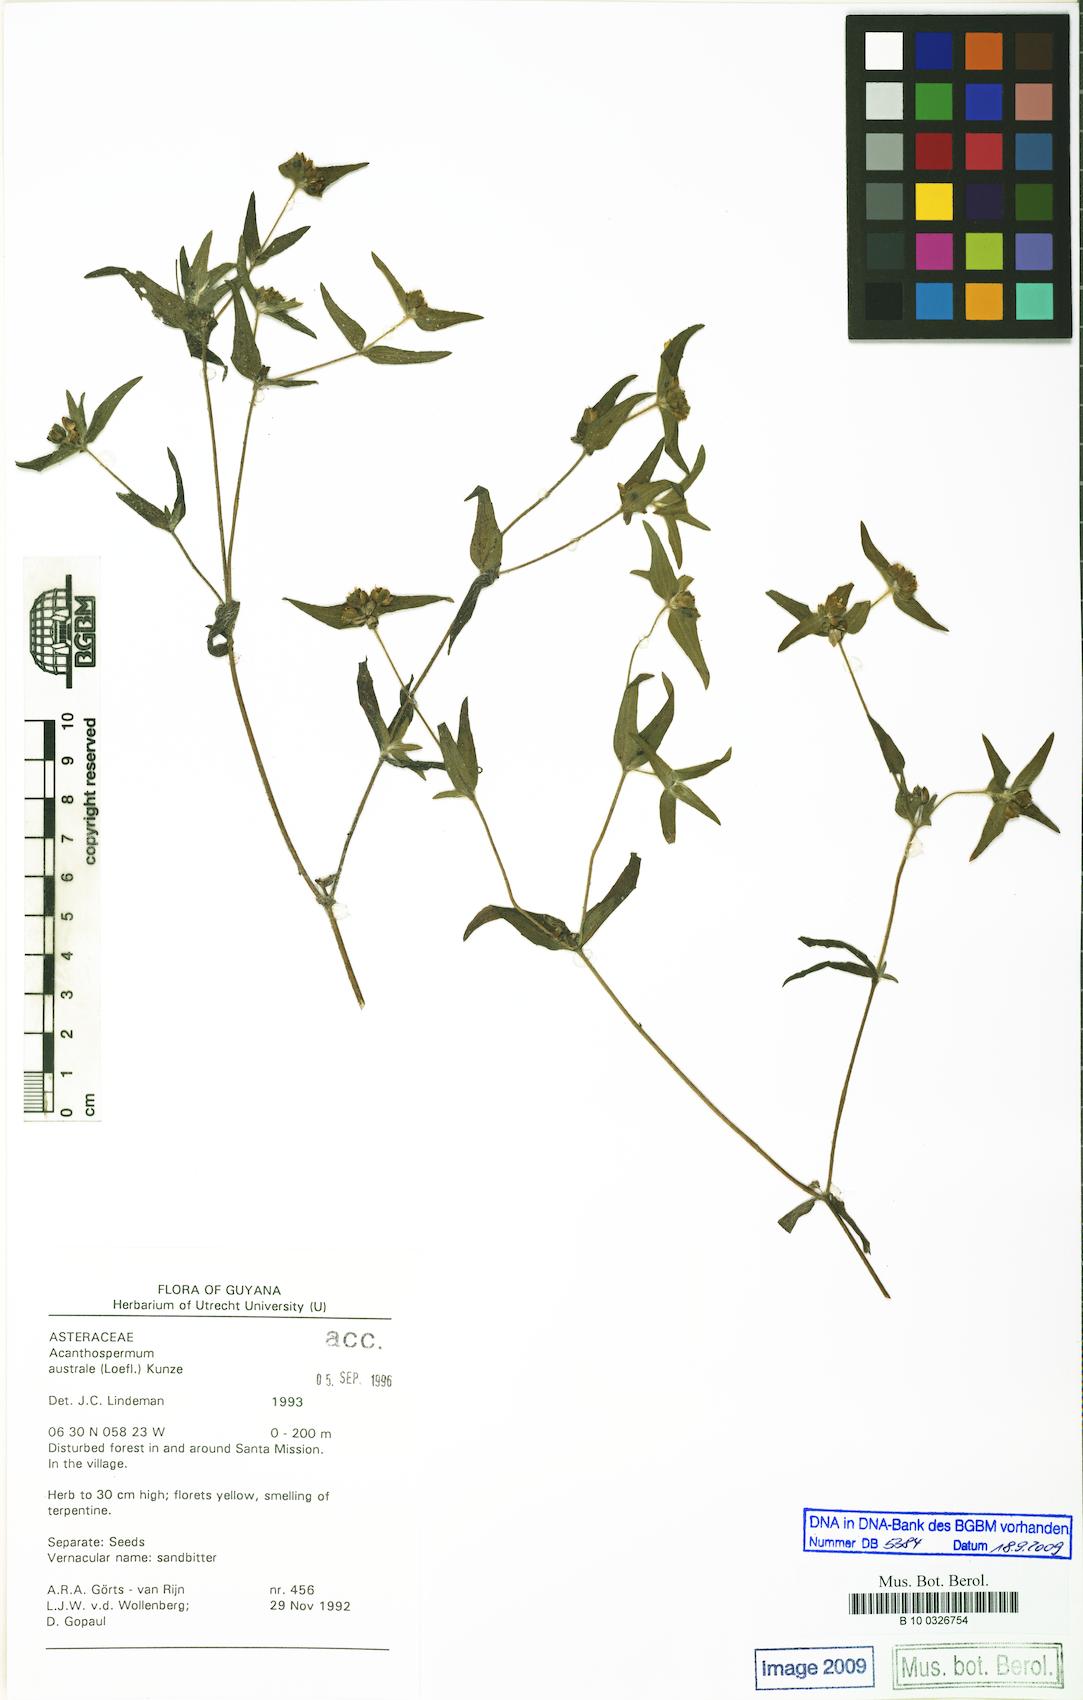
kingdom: Plantae
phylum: Tracheophyta
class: Magnoliopsida
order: Asterales
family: Asteraceae
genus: Acanthospermum
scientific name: Acanthospermum australe
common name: Paraguayan starbur
